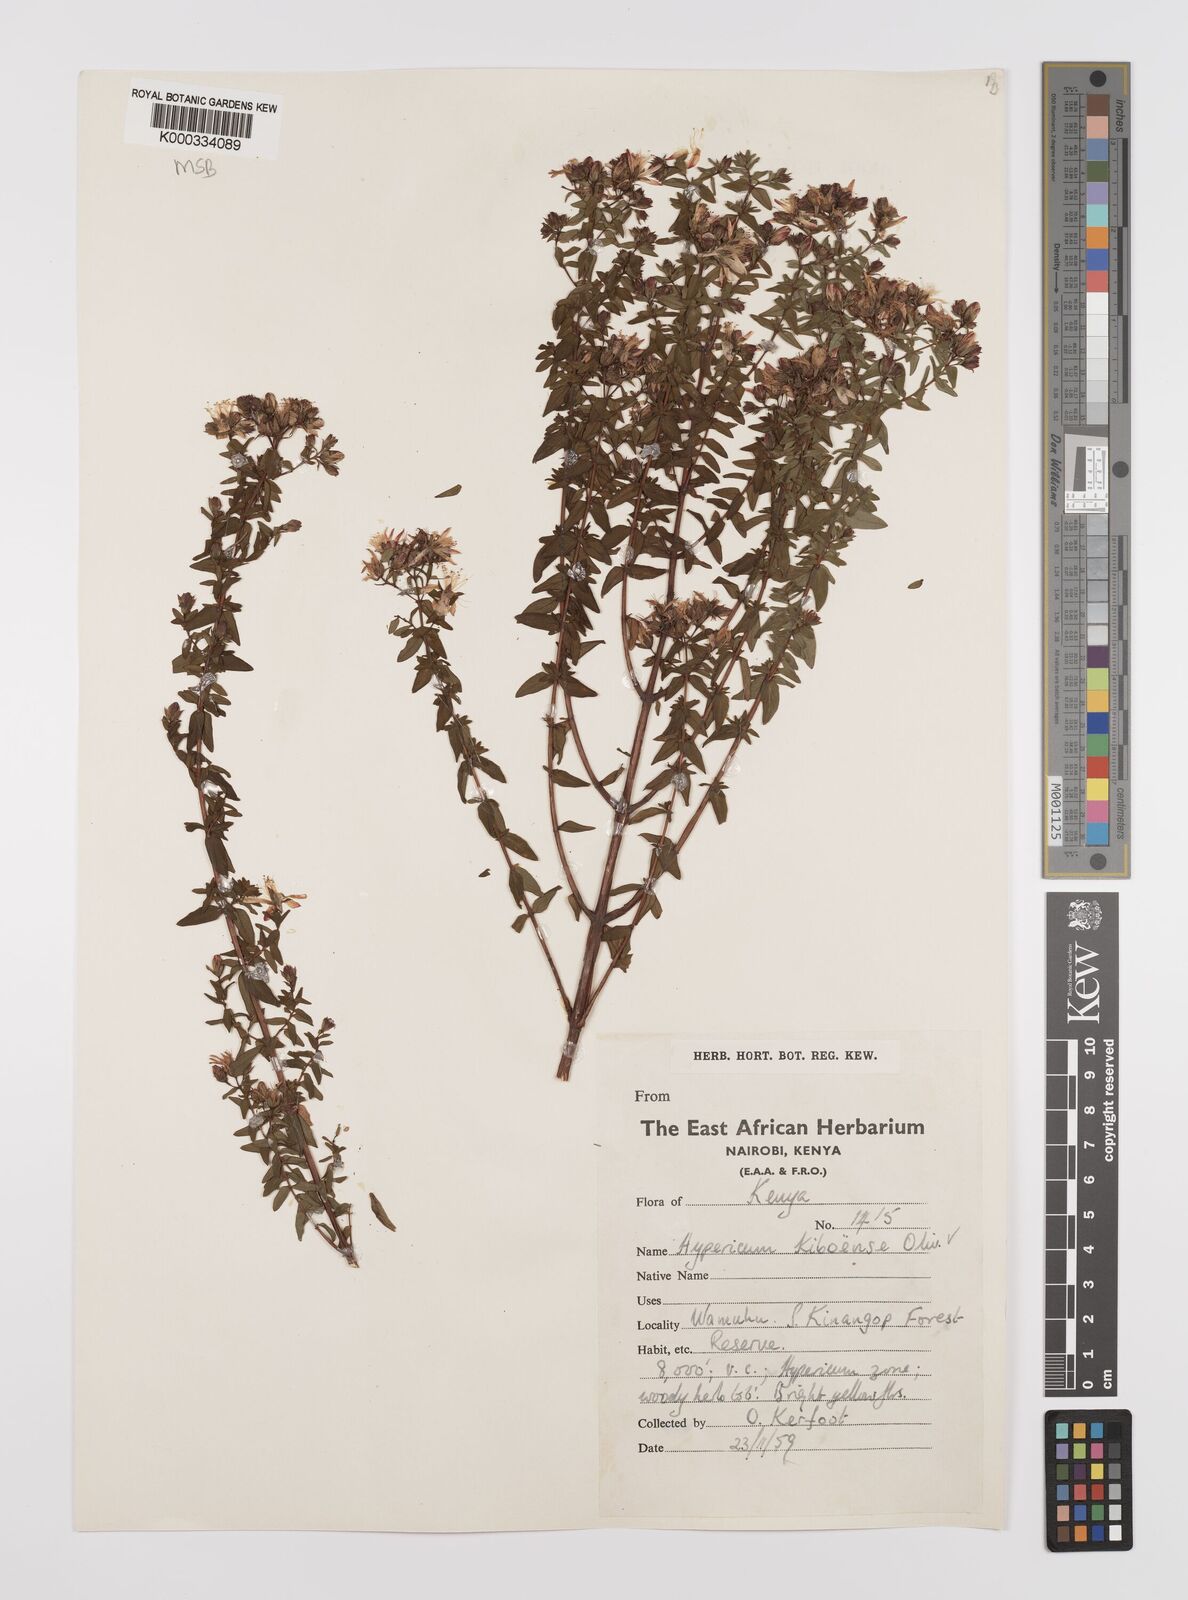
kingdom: Plantae
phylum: Tracheophyta
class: Magnoliopsida
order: Malpighiales
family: Hypericaceae
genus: Hypericum
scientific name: Hypericum kiboense
